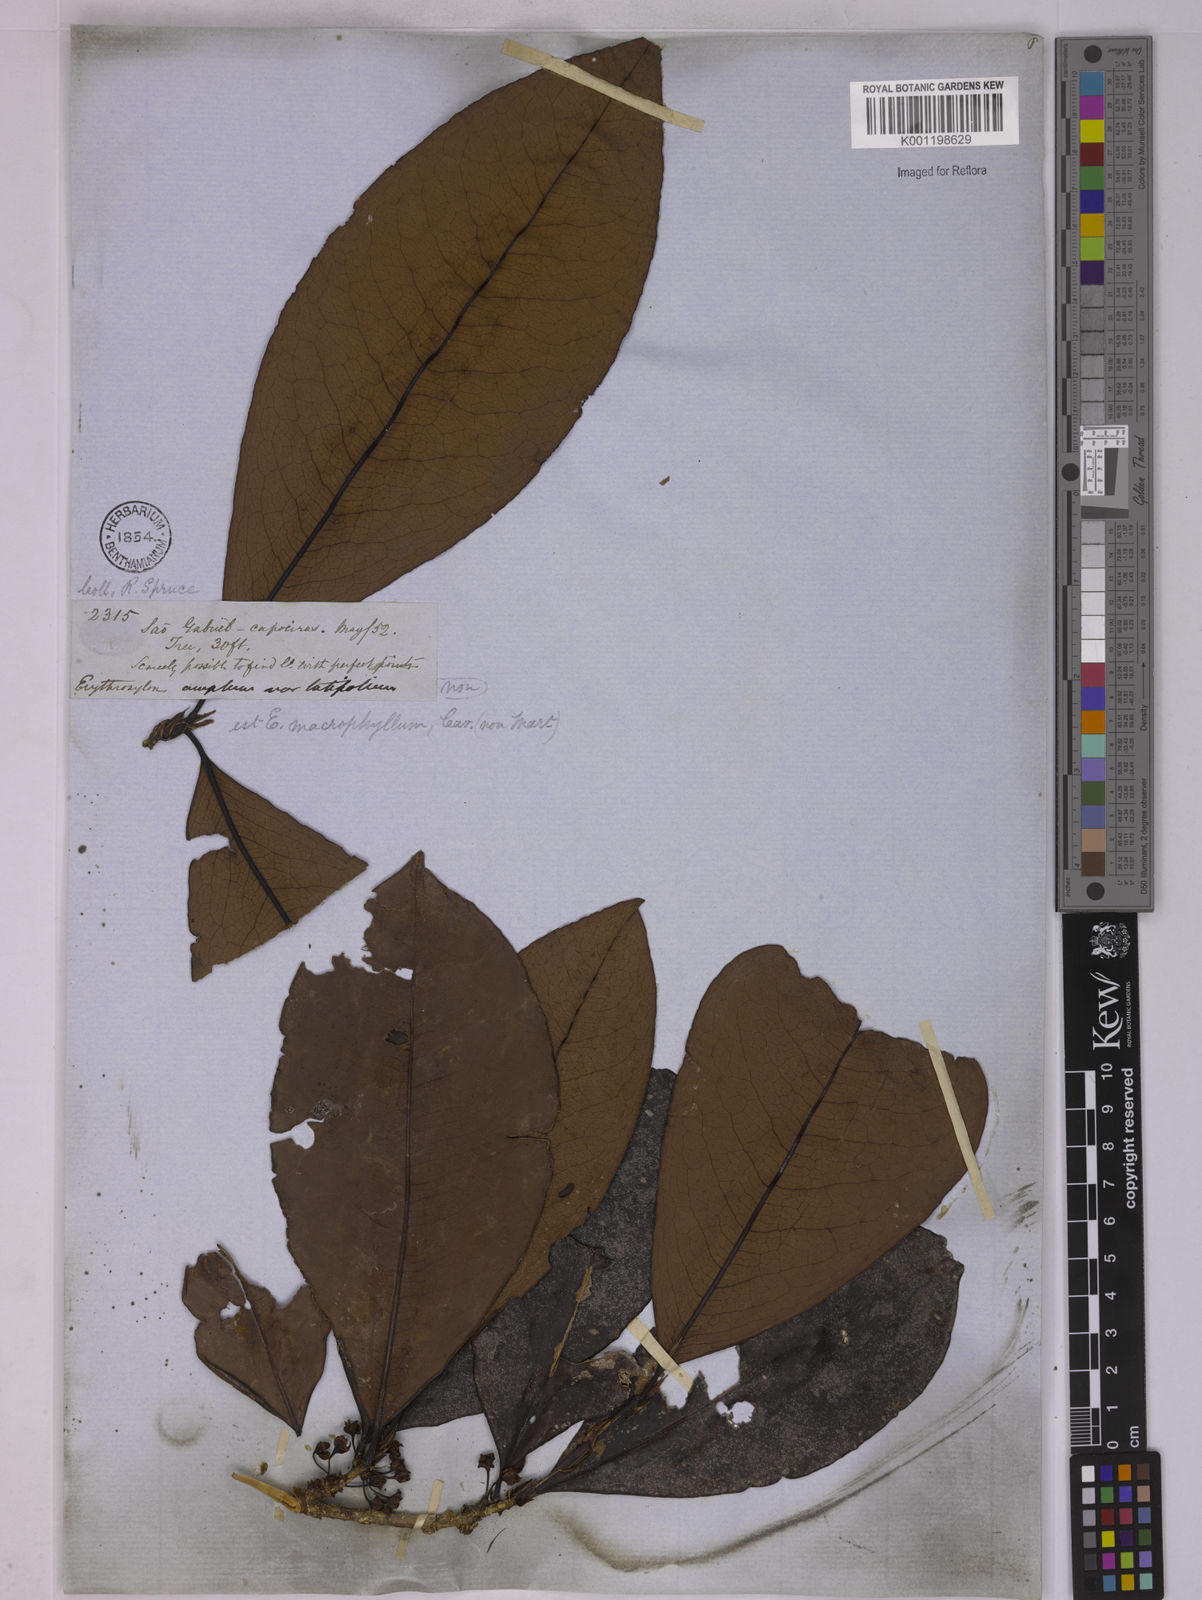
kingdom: Plantae
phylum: Tracheophyta
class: Magnoliopsida
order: Malpighiales
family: Erythroxylaceae
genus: Erythroxylum
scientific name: Erythroxylum macrophyllum
